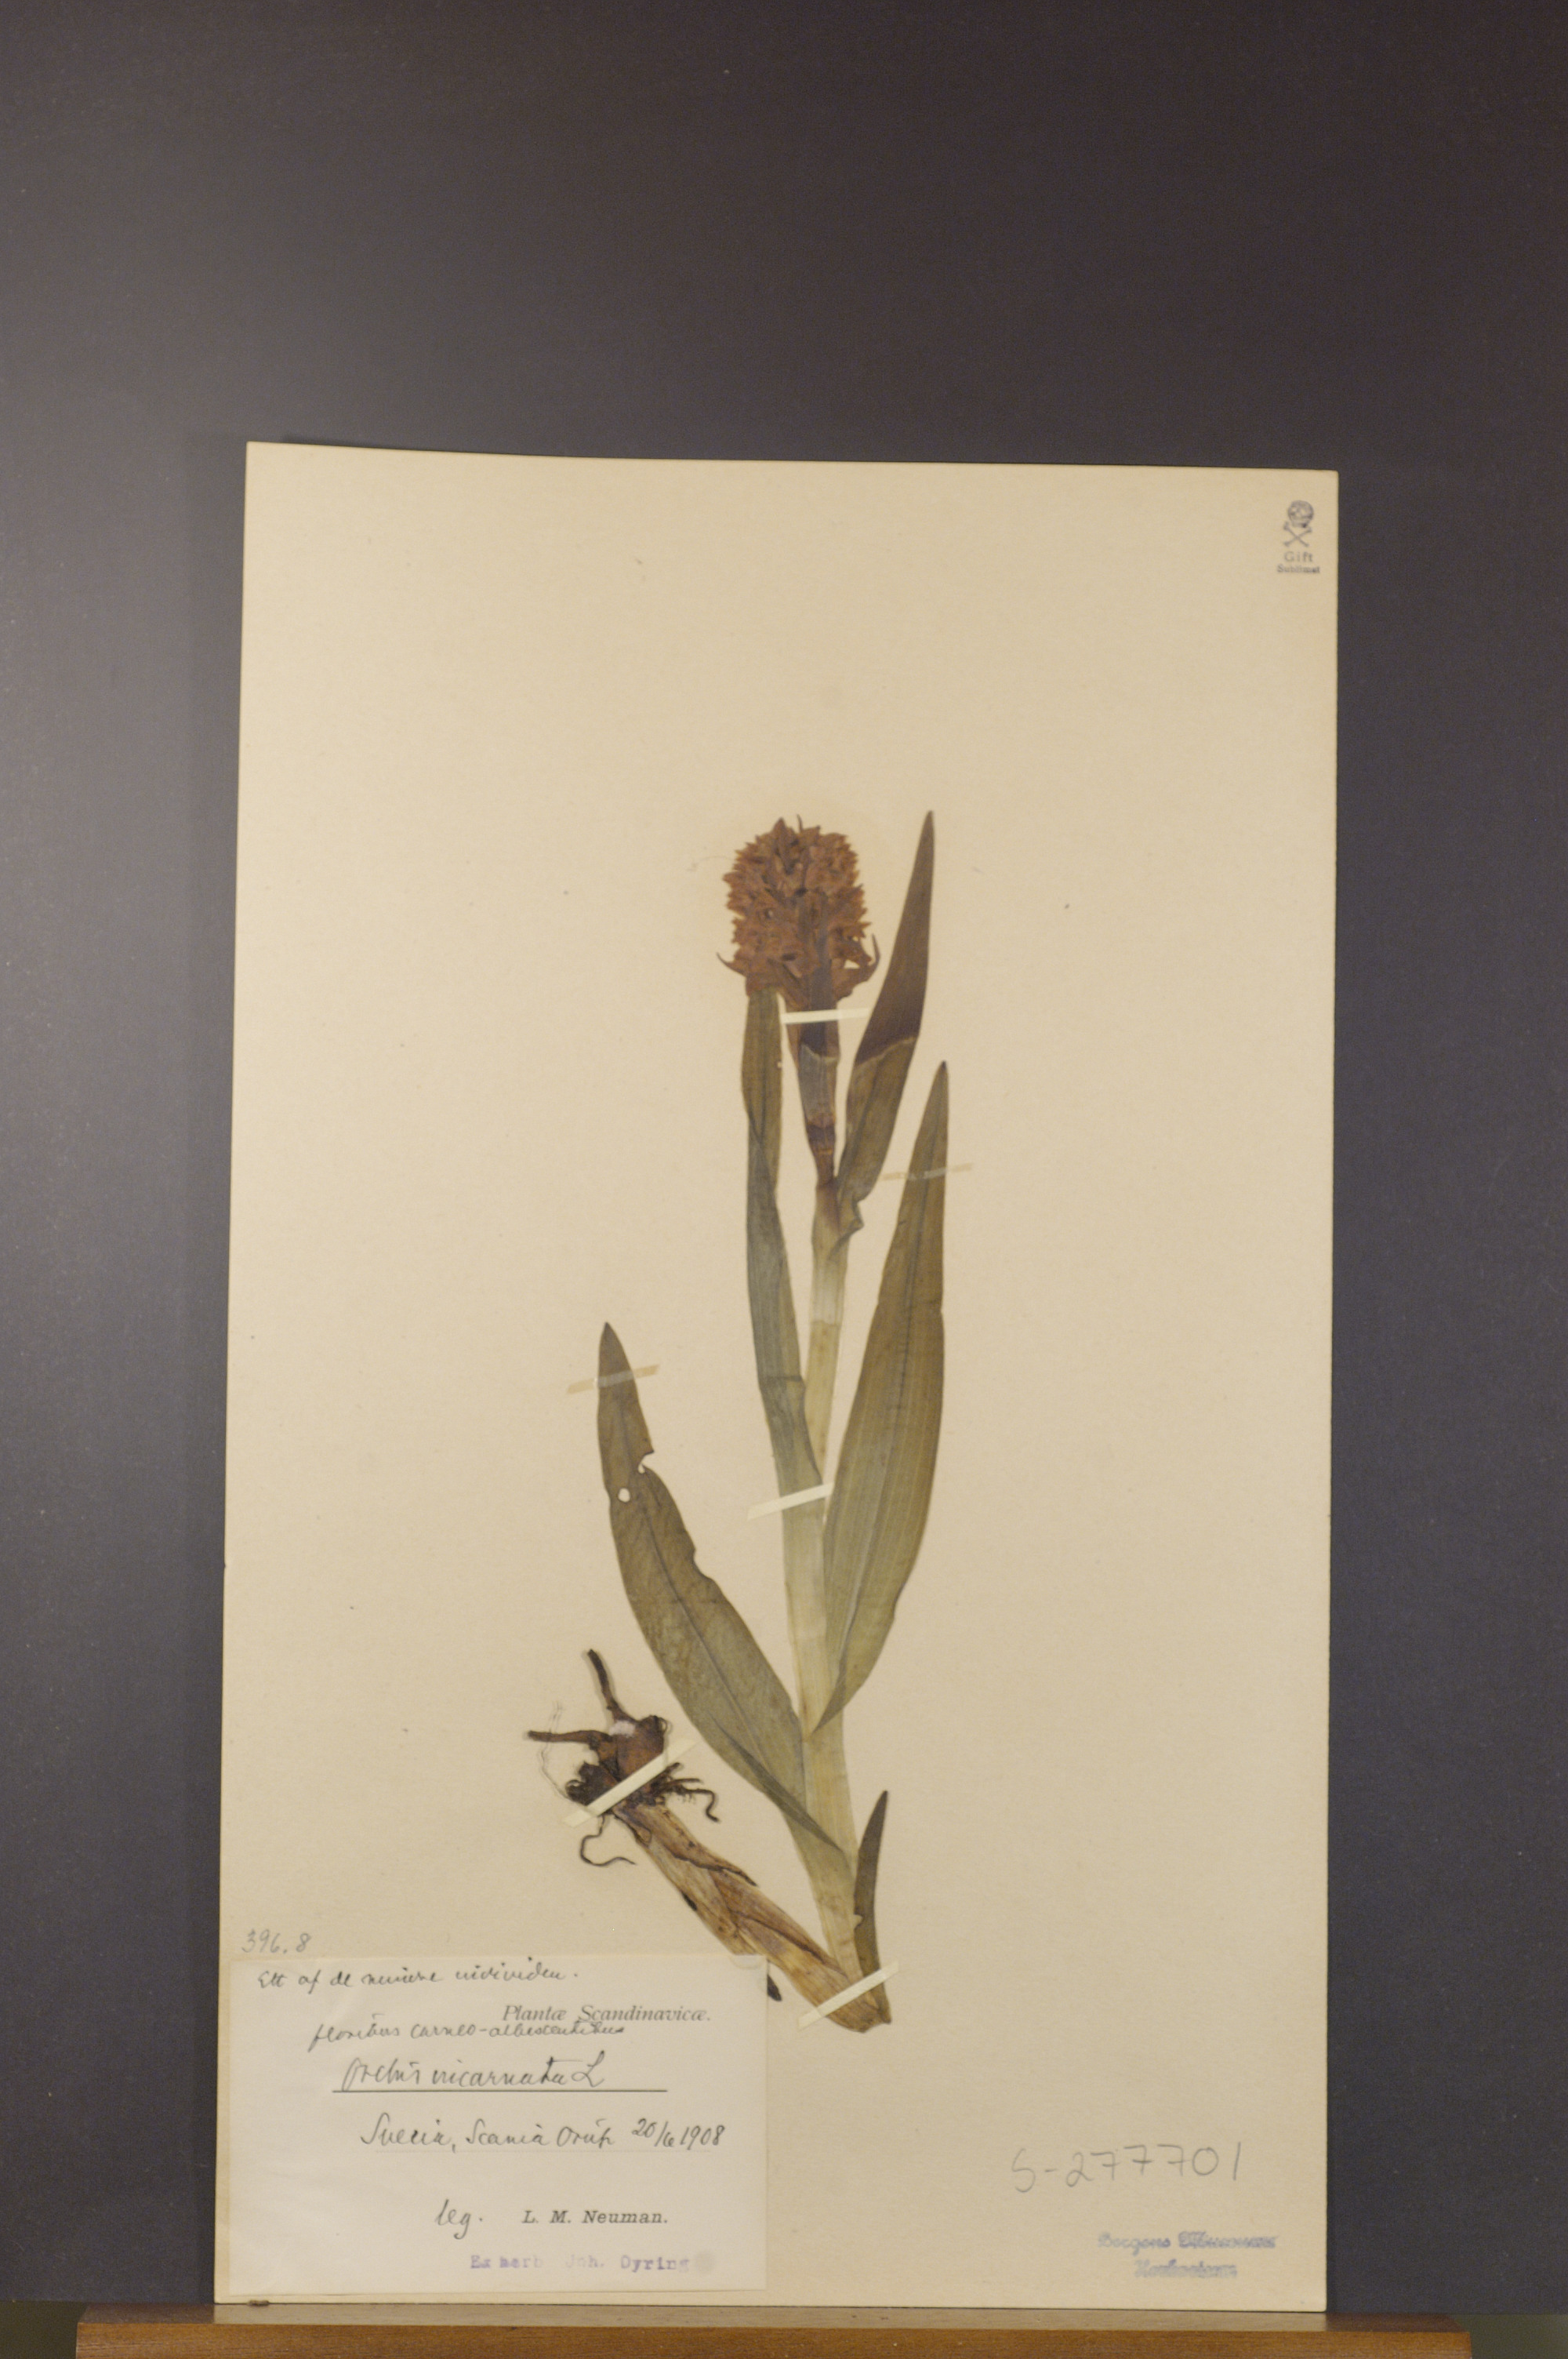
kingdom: Plantae
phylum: Tracheophyta
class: Liliopsida
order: Asparagales
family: Orchidaceae
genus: Dactylorhiza
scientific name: Dactylorhiza incarnata
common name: Early marsh-orchid
